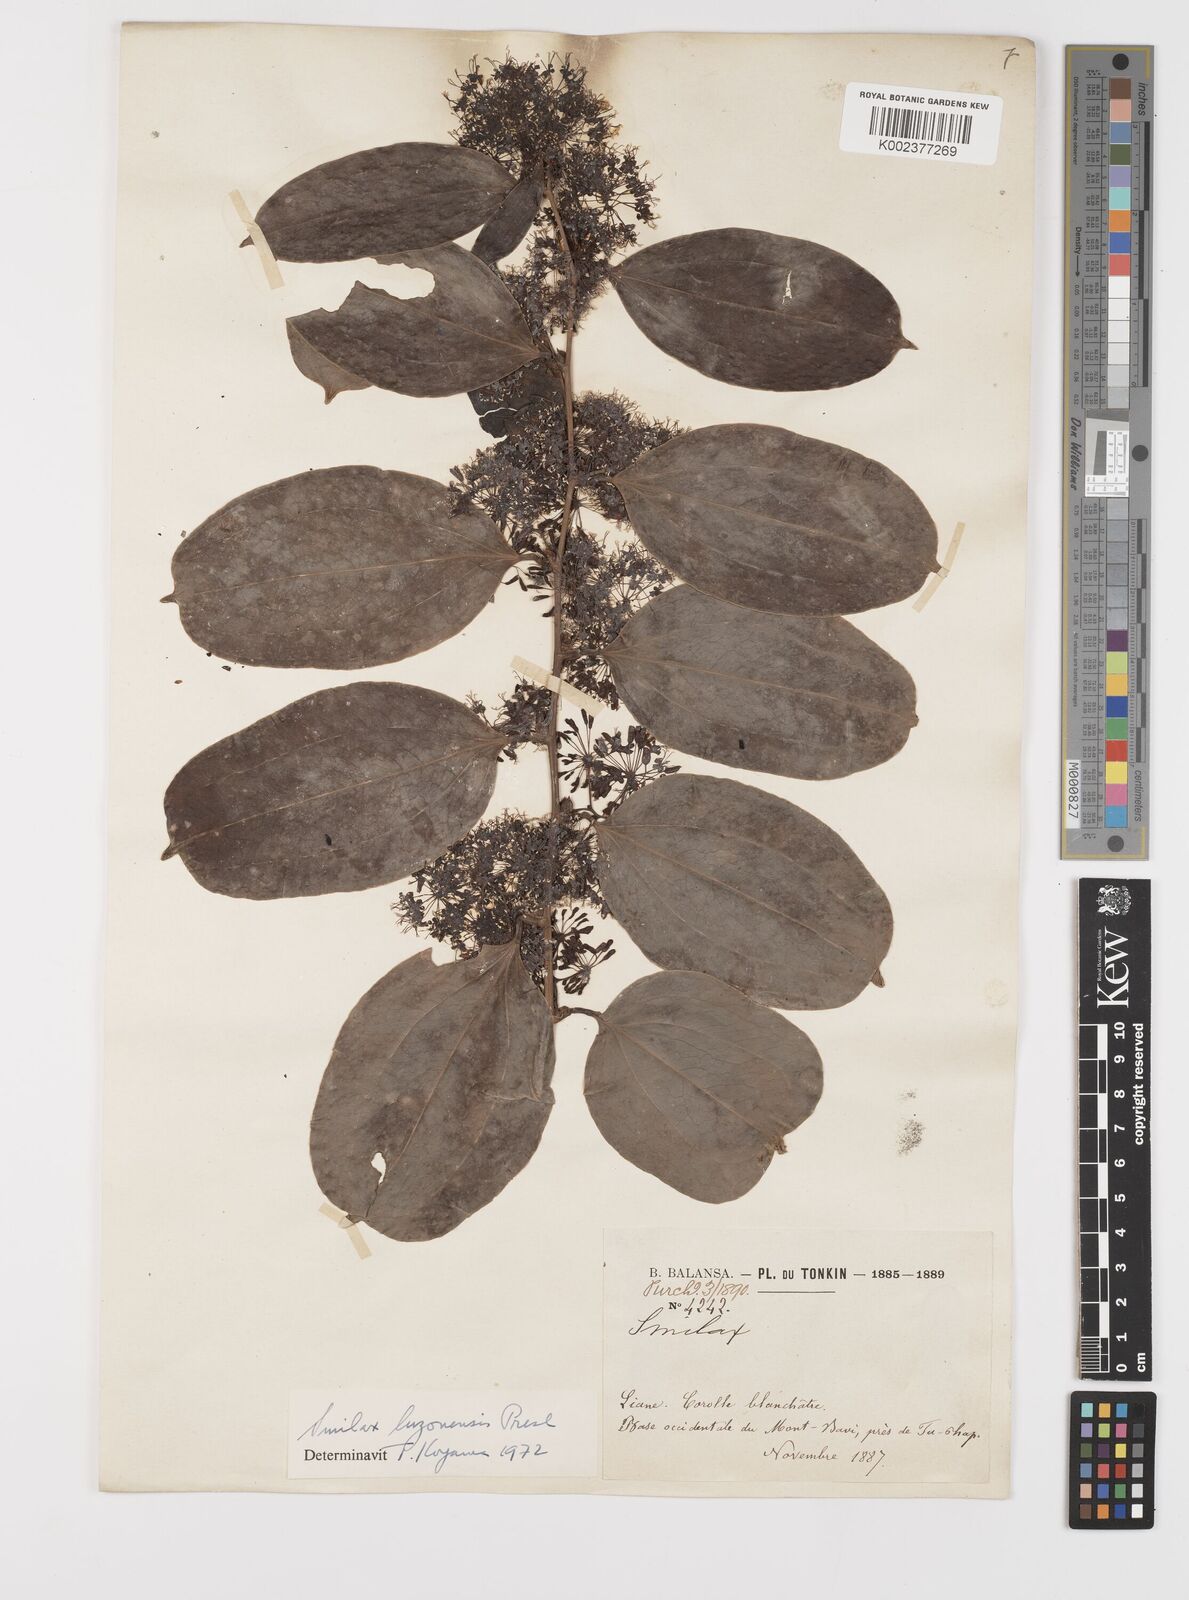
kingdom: Plantae
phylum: Tracheophyta
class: Liliopsida
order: Liliales
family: Smilacaceae
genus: Smilax
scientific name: Smilax luzonensis
